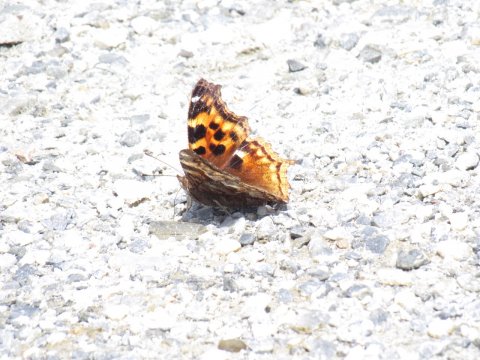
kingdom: Animalia
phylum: Arthropoda
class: Insecta
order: Lepidoptera
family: Nymphalidae
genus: Polygonia
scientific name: Polygonia vaualbum
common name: Compton Tortoiseshell
